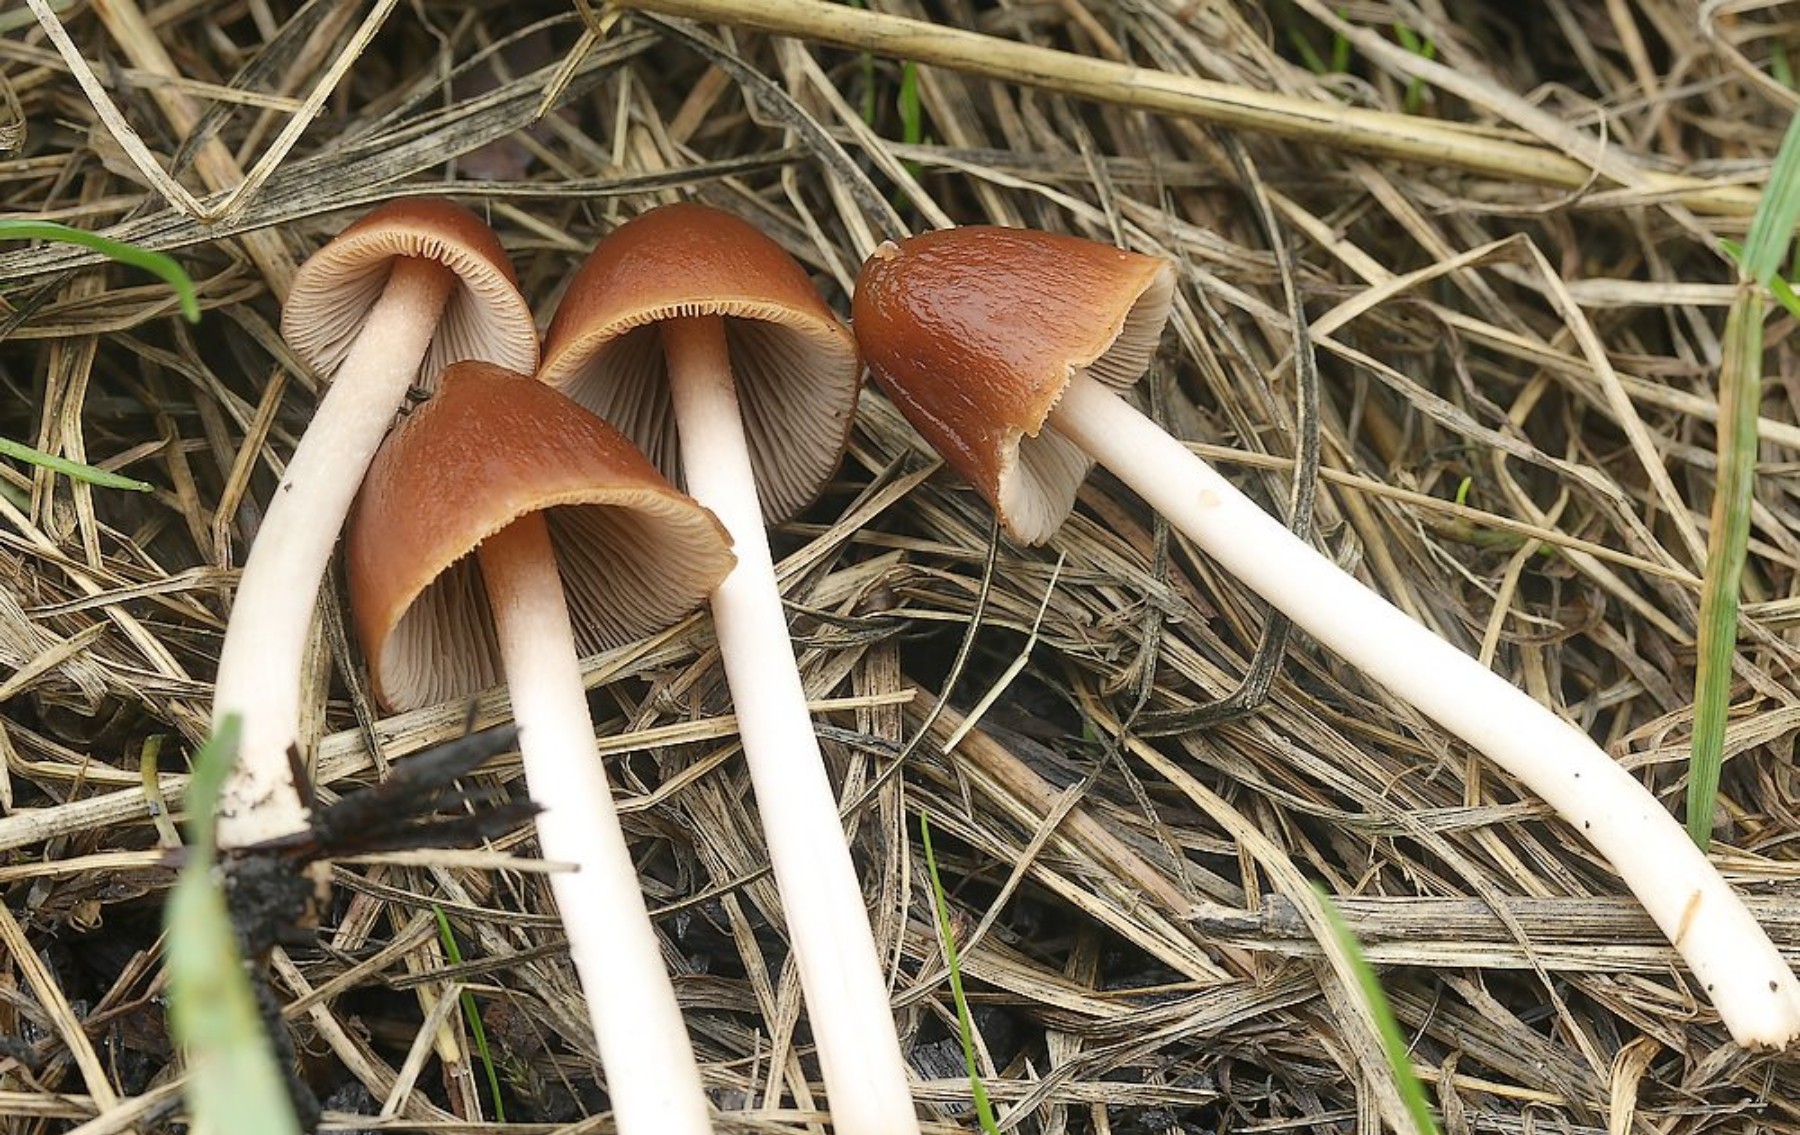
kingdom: Fungi
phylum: Basidiomycota
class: Agaricomycetes
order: Agaricales
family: Psathyrellaceae
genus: Parasola
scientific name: Parasola conopilea
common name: kegle-hjulhat
